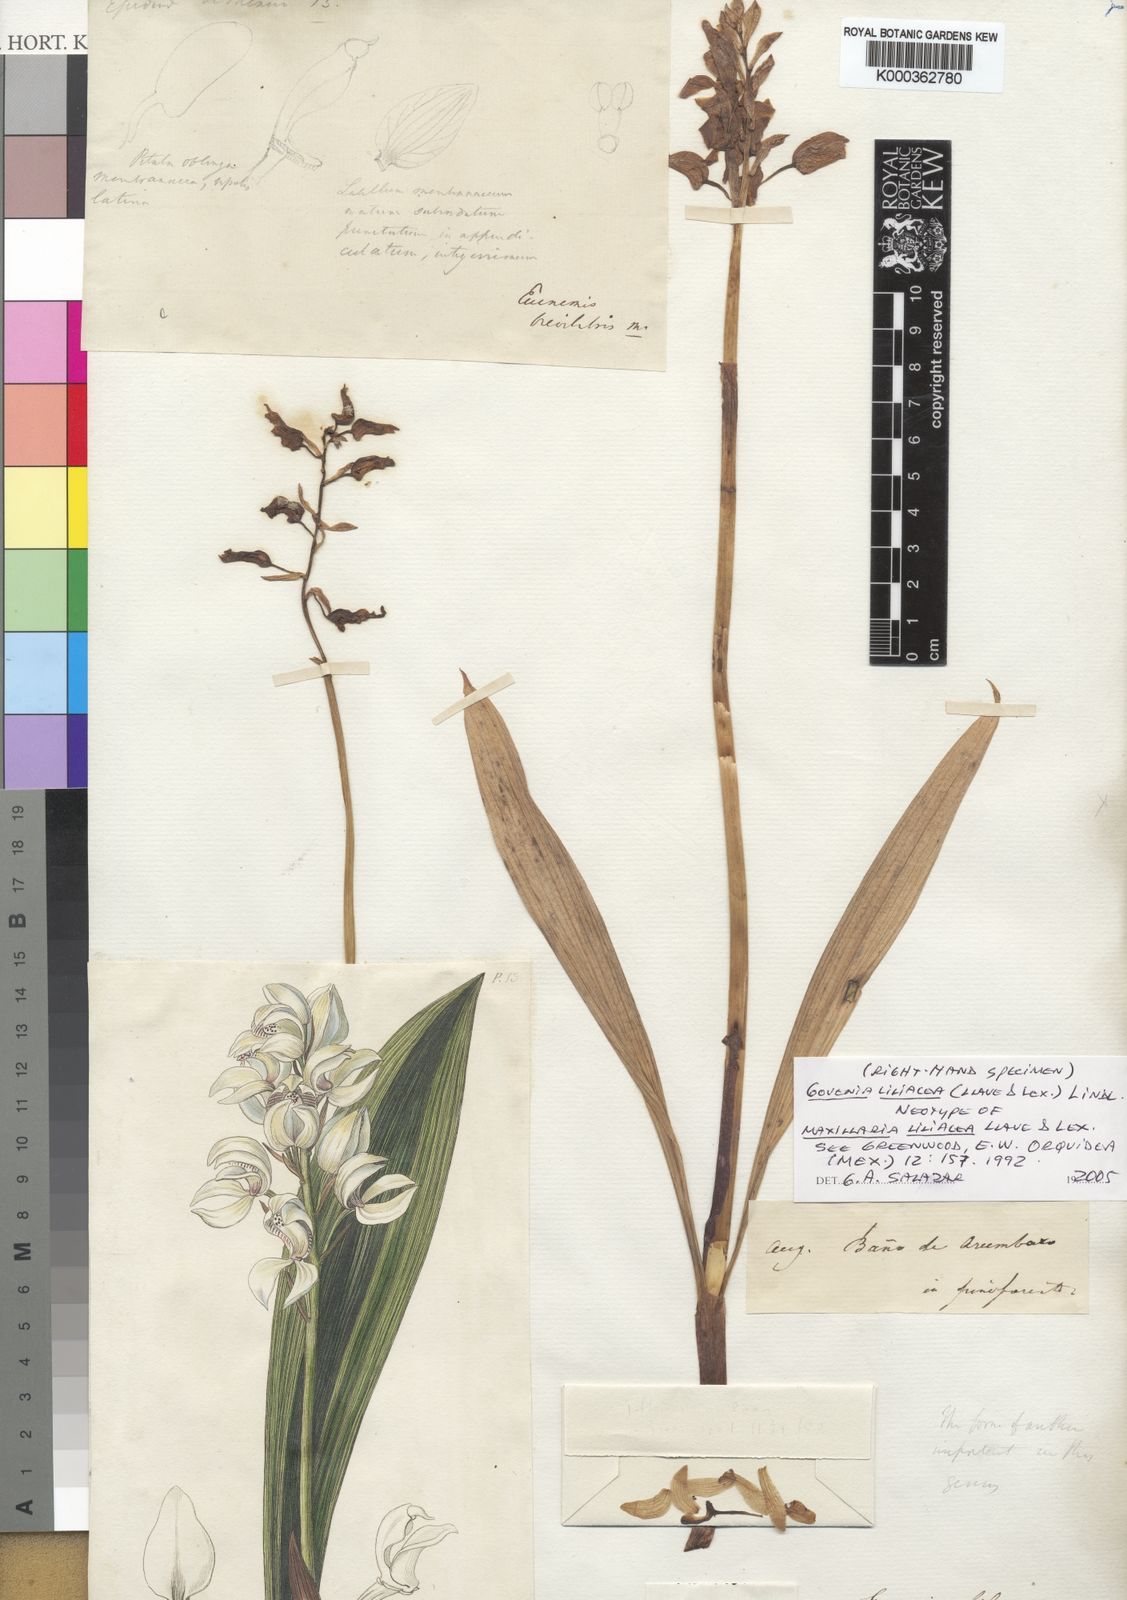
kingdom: Plantae
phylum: Tracheophyta
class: Liliopsida
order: Asparagales
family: Orchidaceae
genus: Govenia
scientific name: Govenia liliacea
